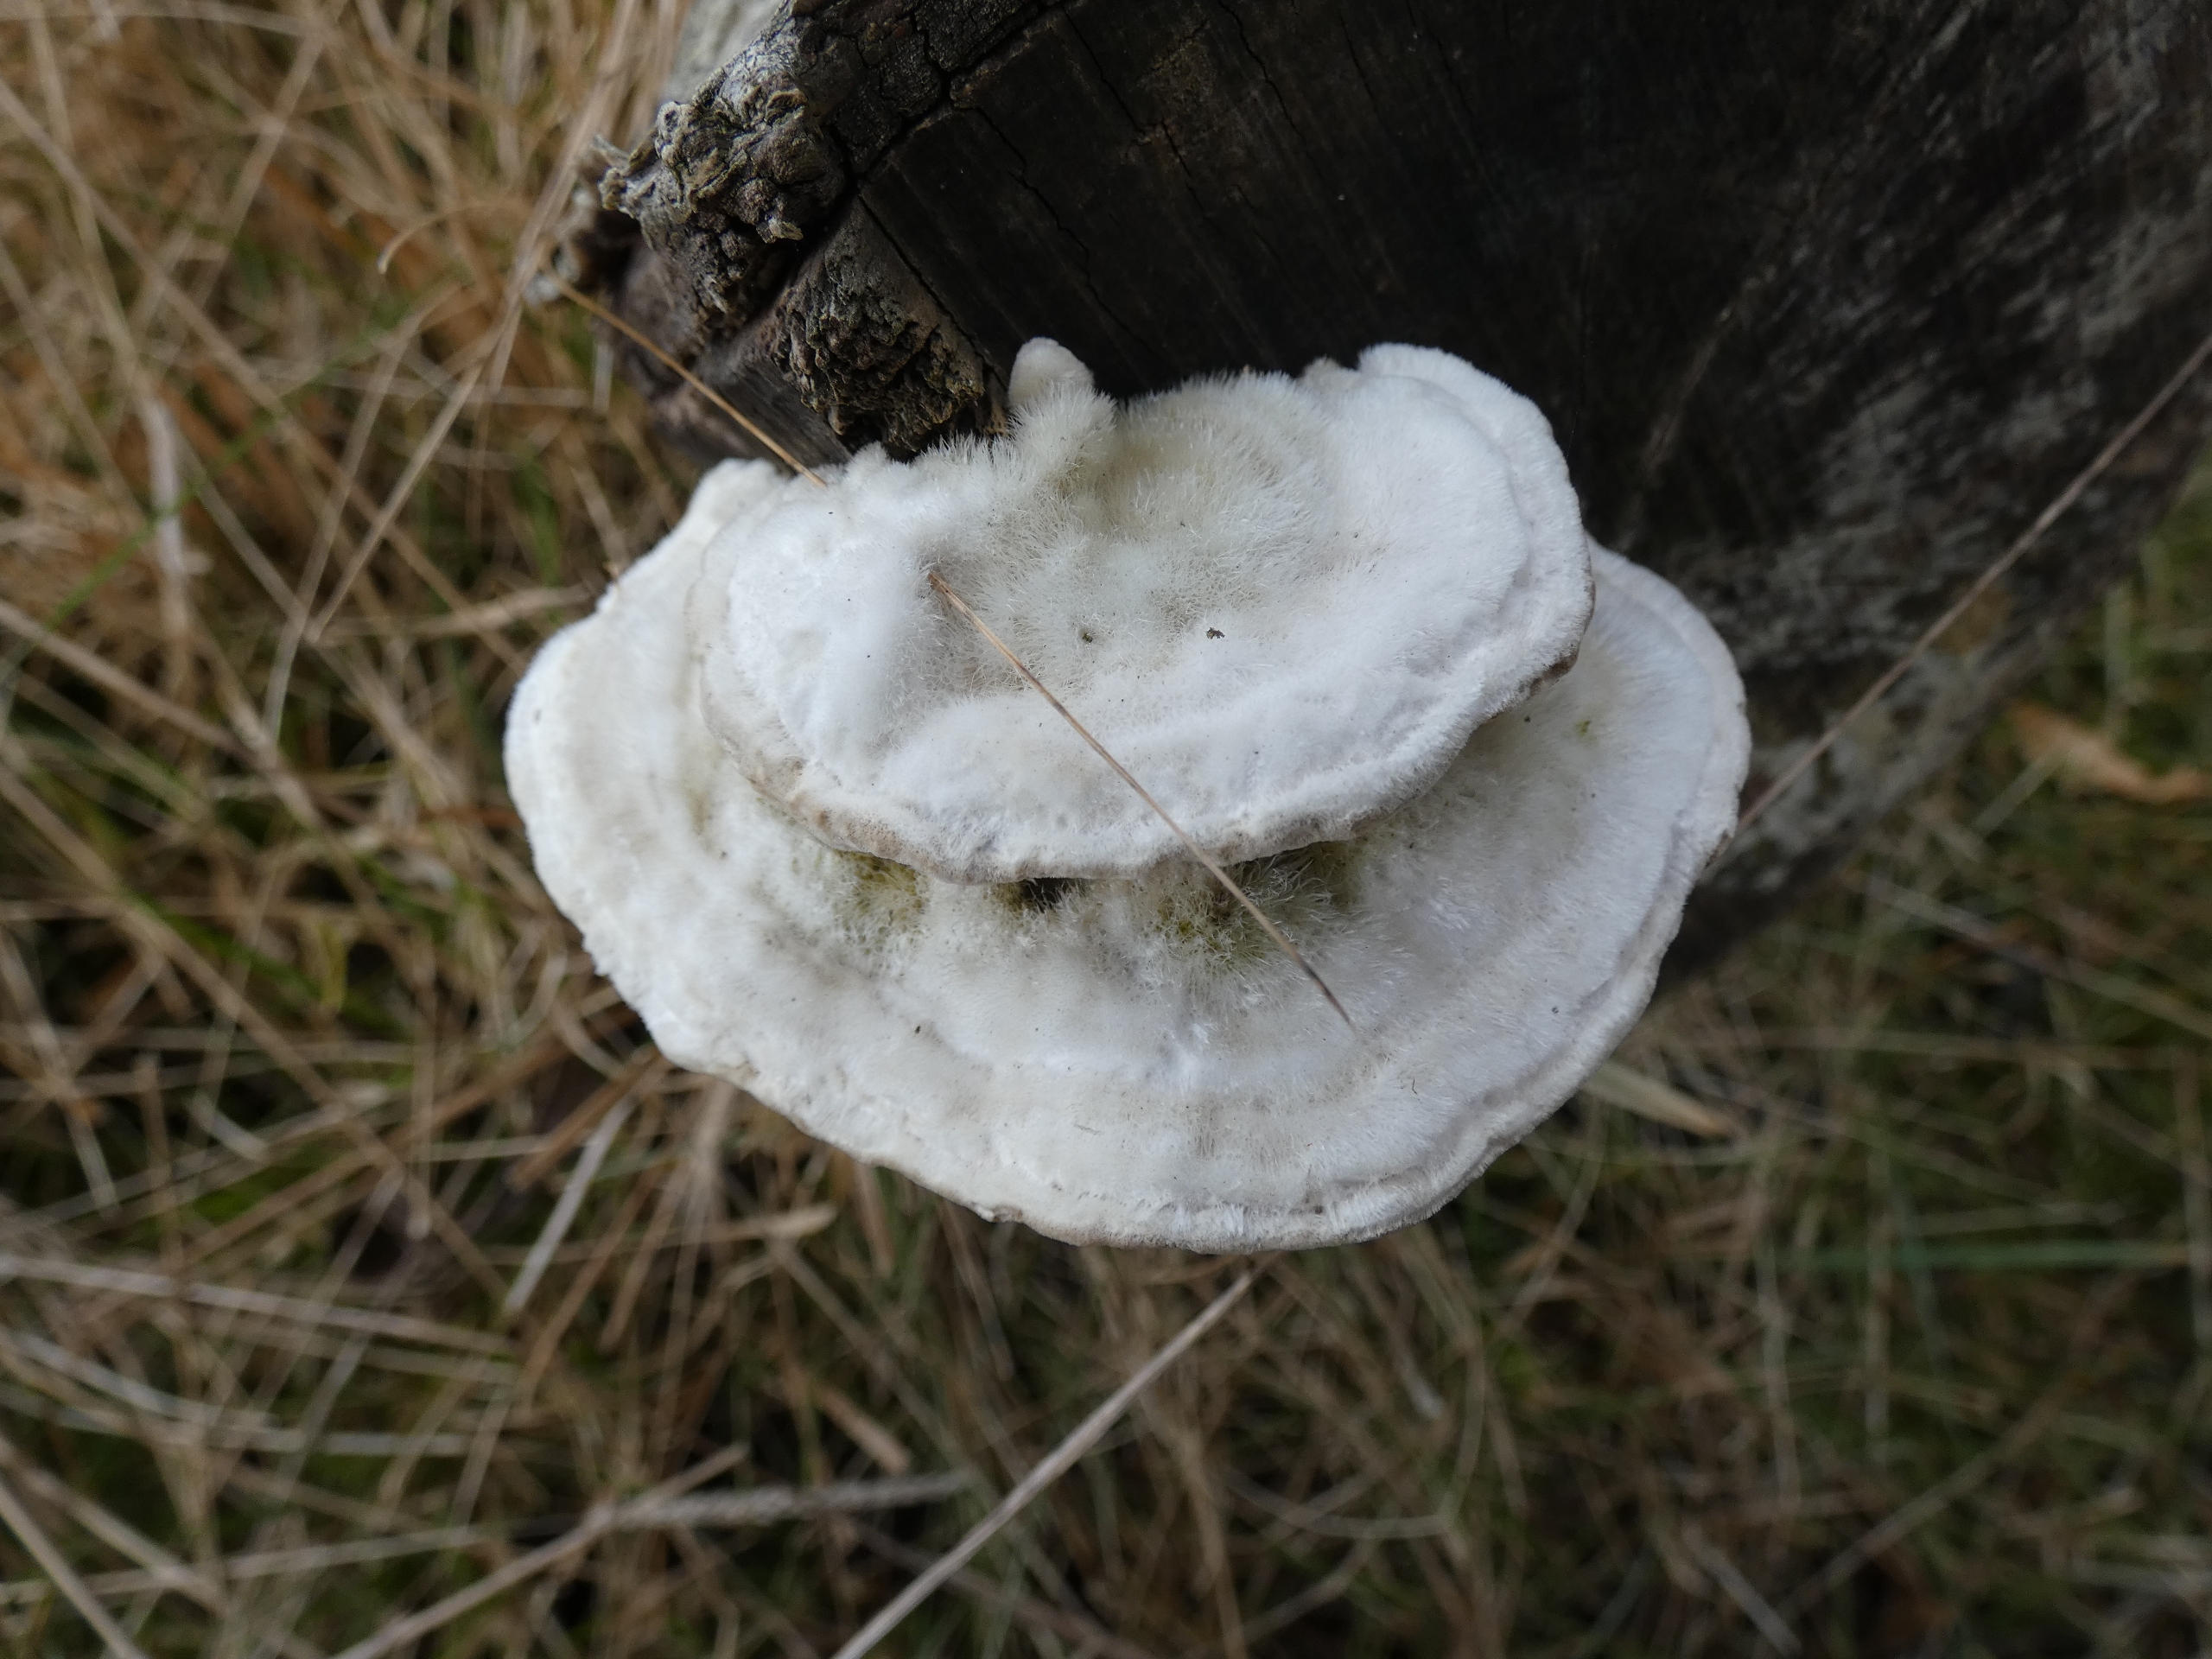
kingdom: Fungi
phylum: Basidiomycota
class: Agaricomycetes
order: Polyporales
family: Polyporaceae
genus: Trametes
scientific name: Trametes hirsuta
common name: Håret læderporesvamp
